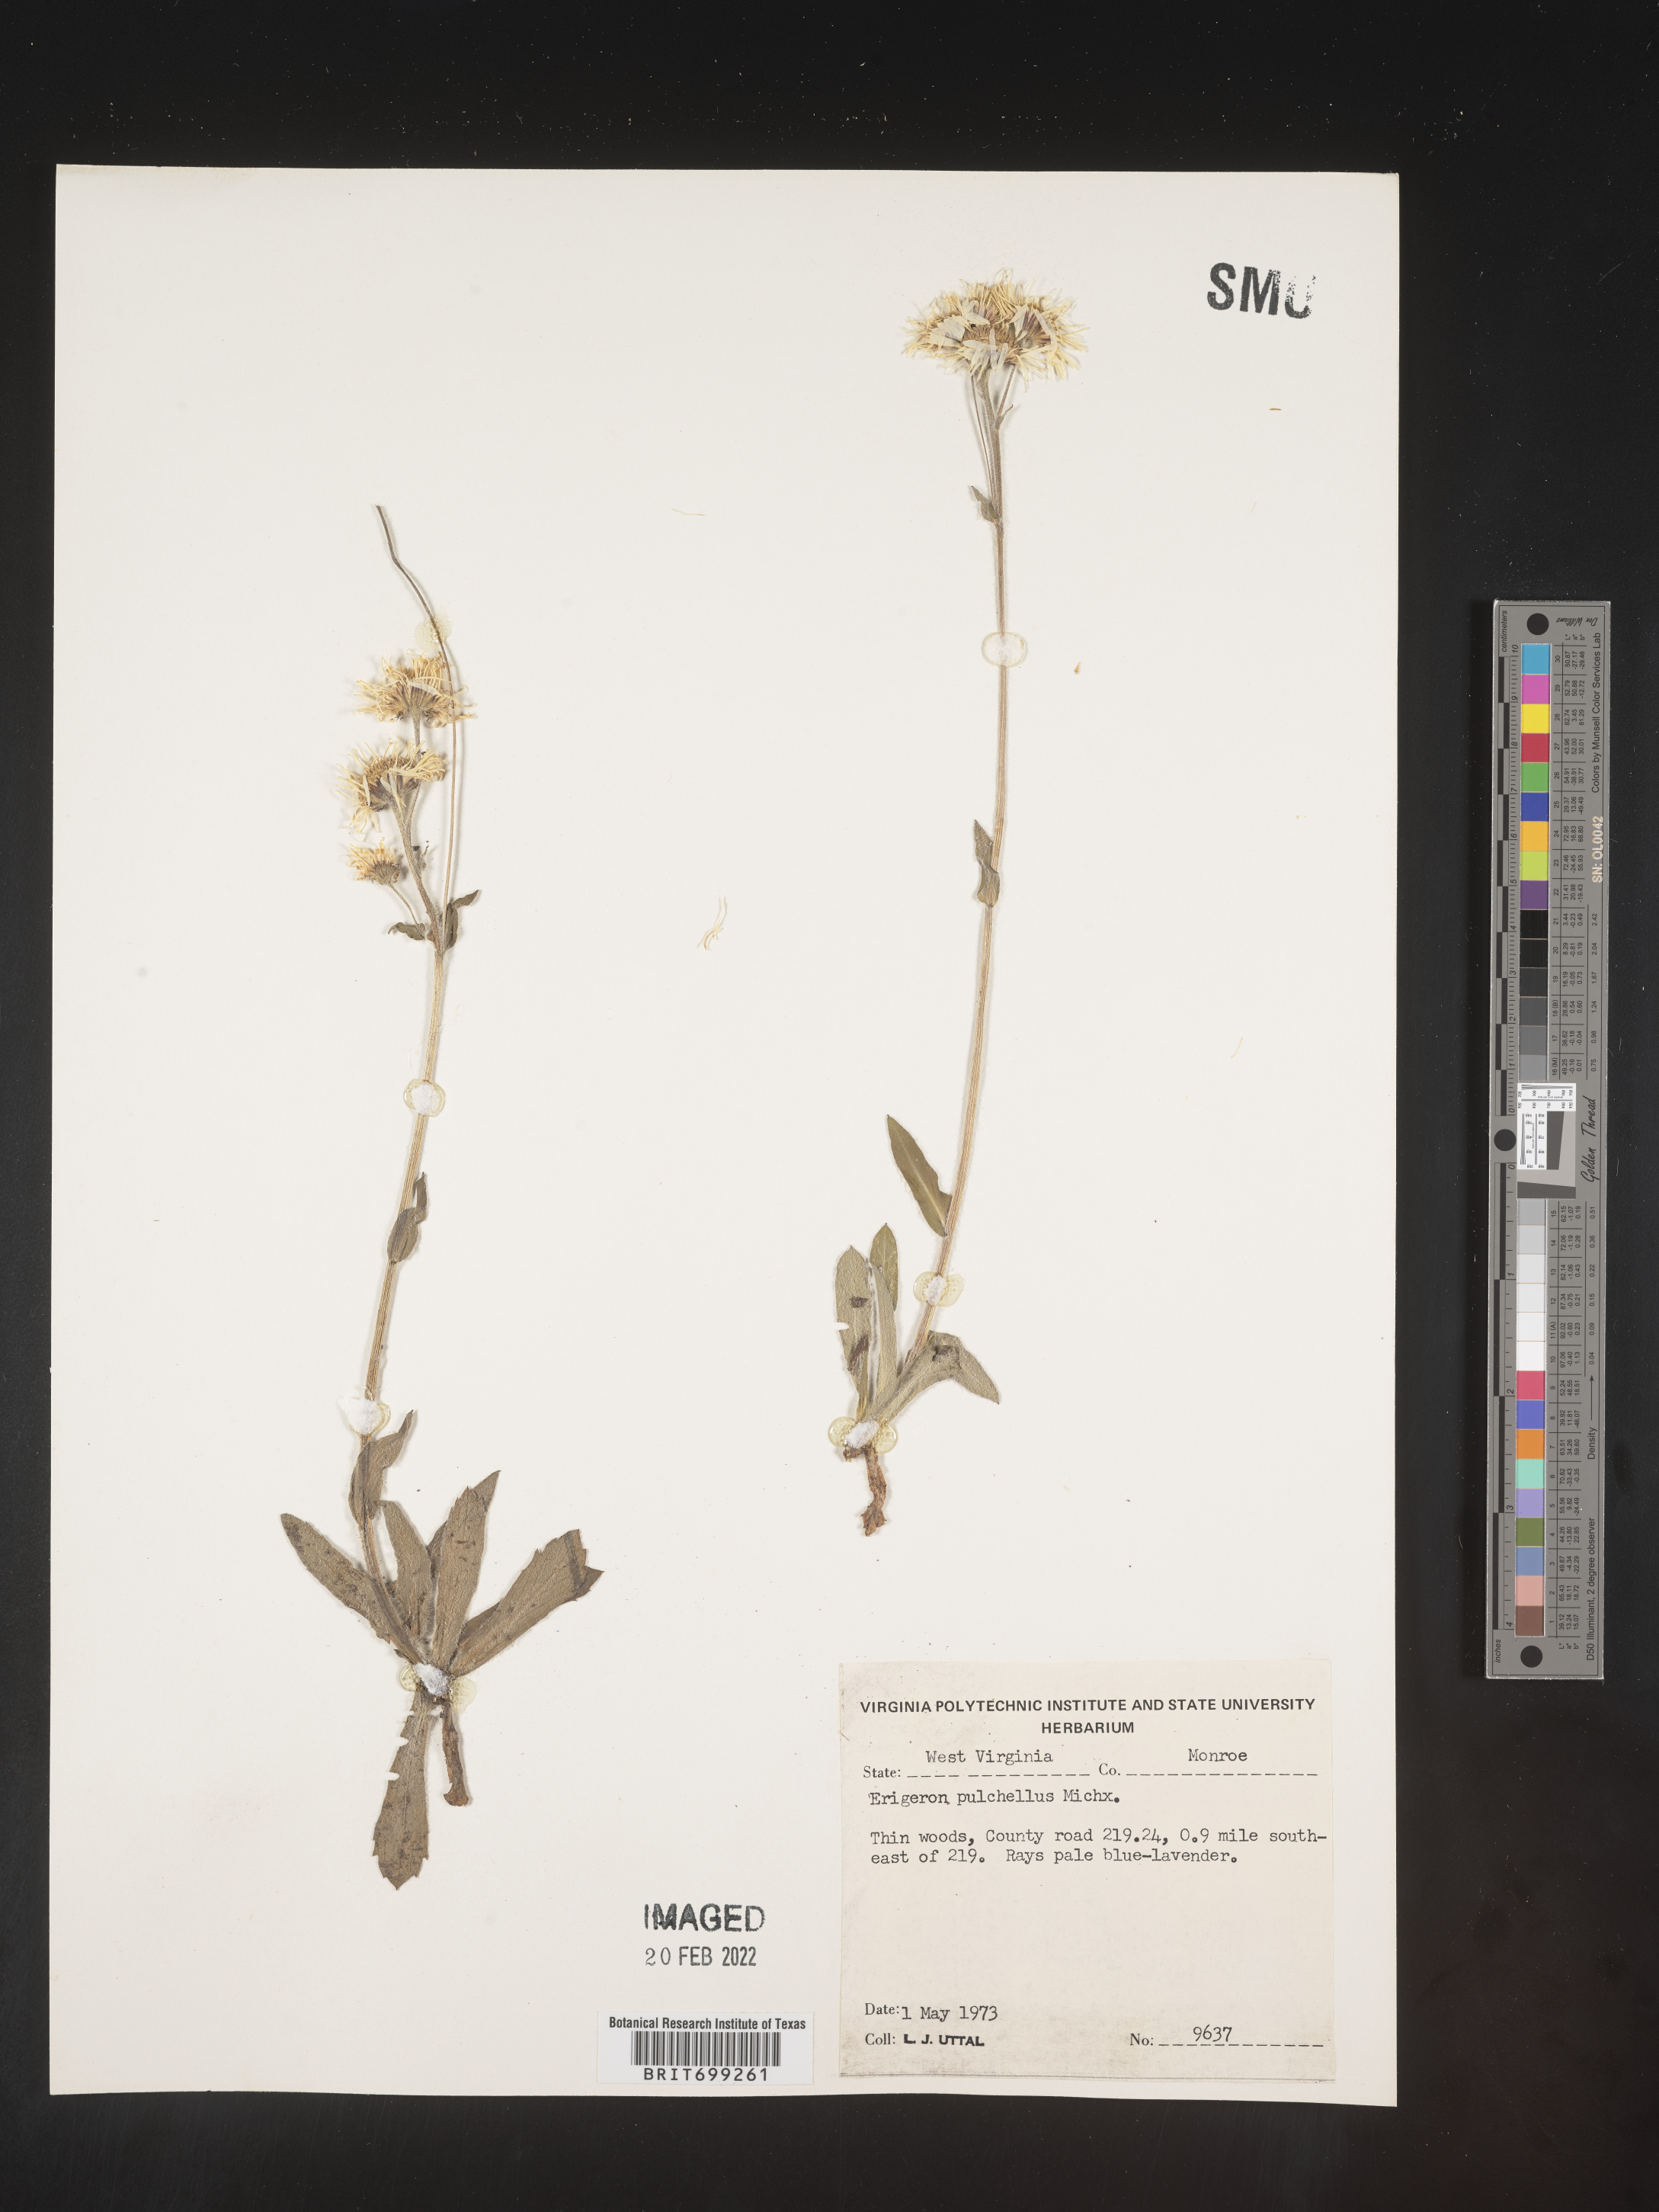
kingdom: Plantae
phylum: Tracheophyta
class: Magnoliopsida
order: Asterales
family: Asteraceae
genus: Erigeron
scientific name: Erigeron pulchellus
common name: Hairy fleabane
